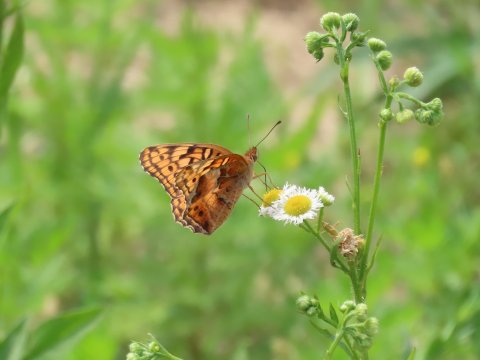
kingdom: Animalia
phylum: Arthropoda
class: Insecta
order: Lepidoptera
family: Nymphalidae
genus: Euptoieta
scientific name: Euptoieta claudia
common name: Variegated Fritillary
